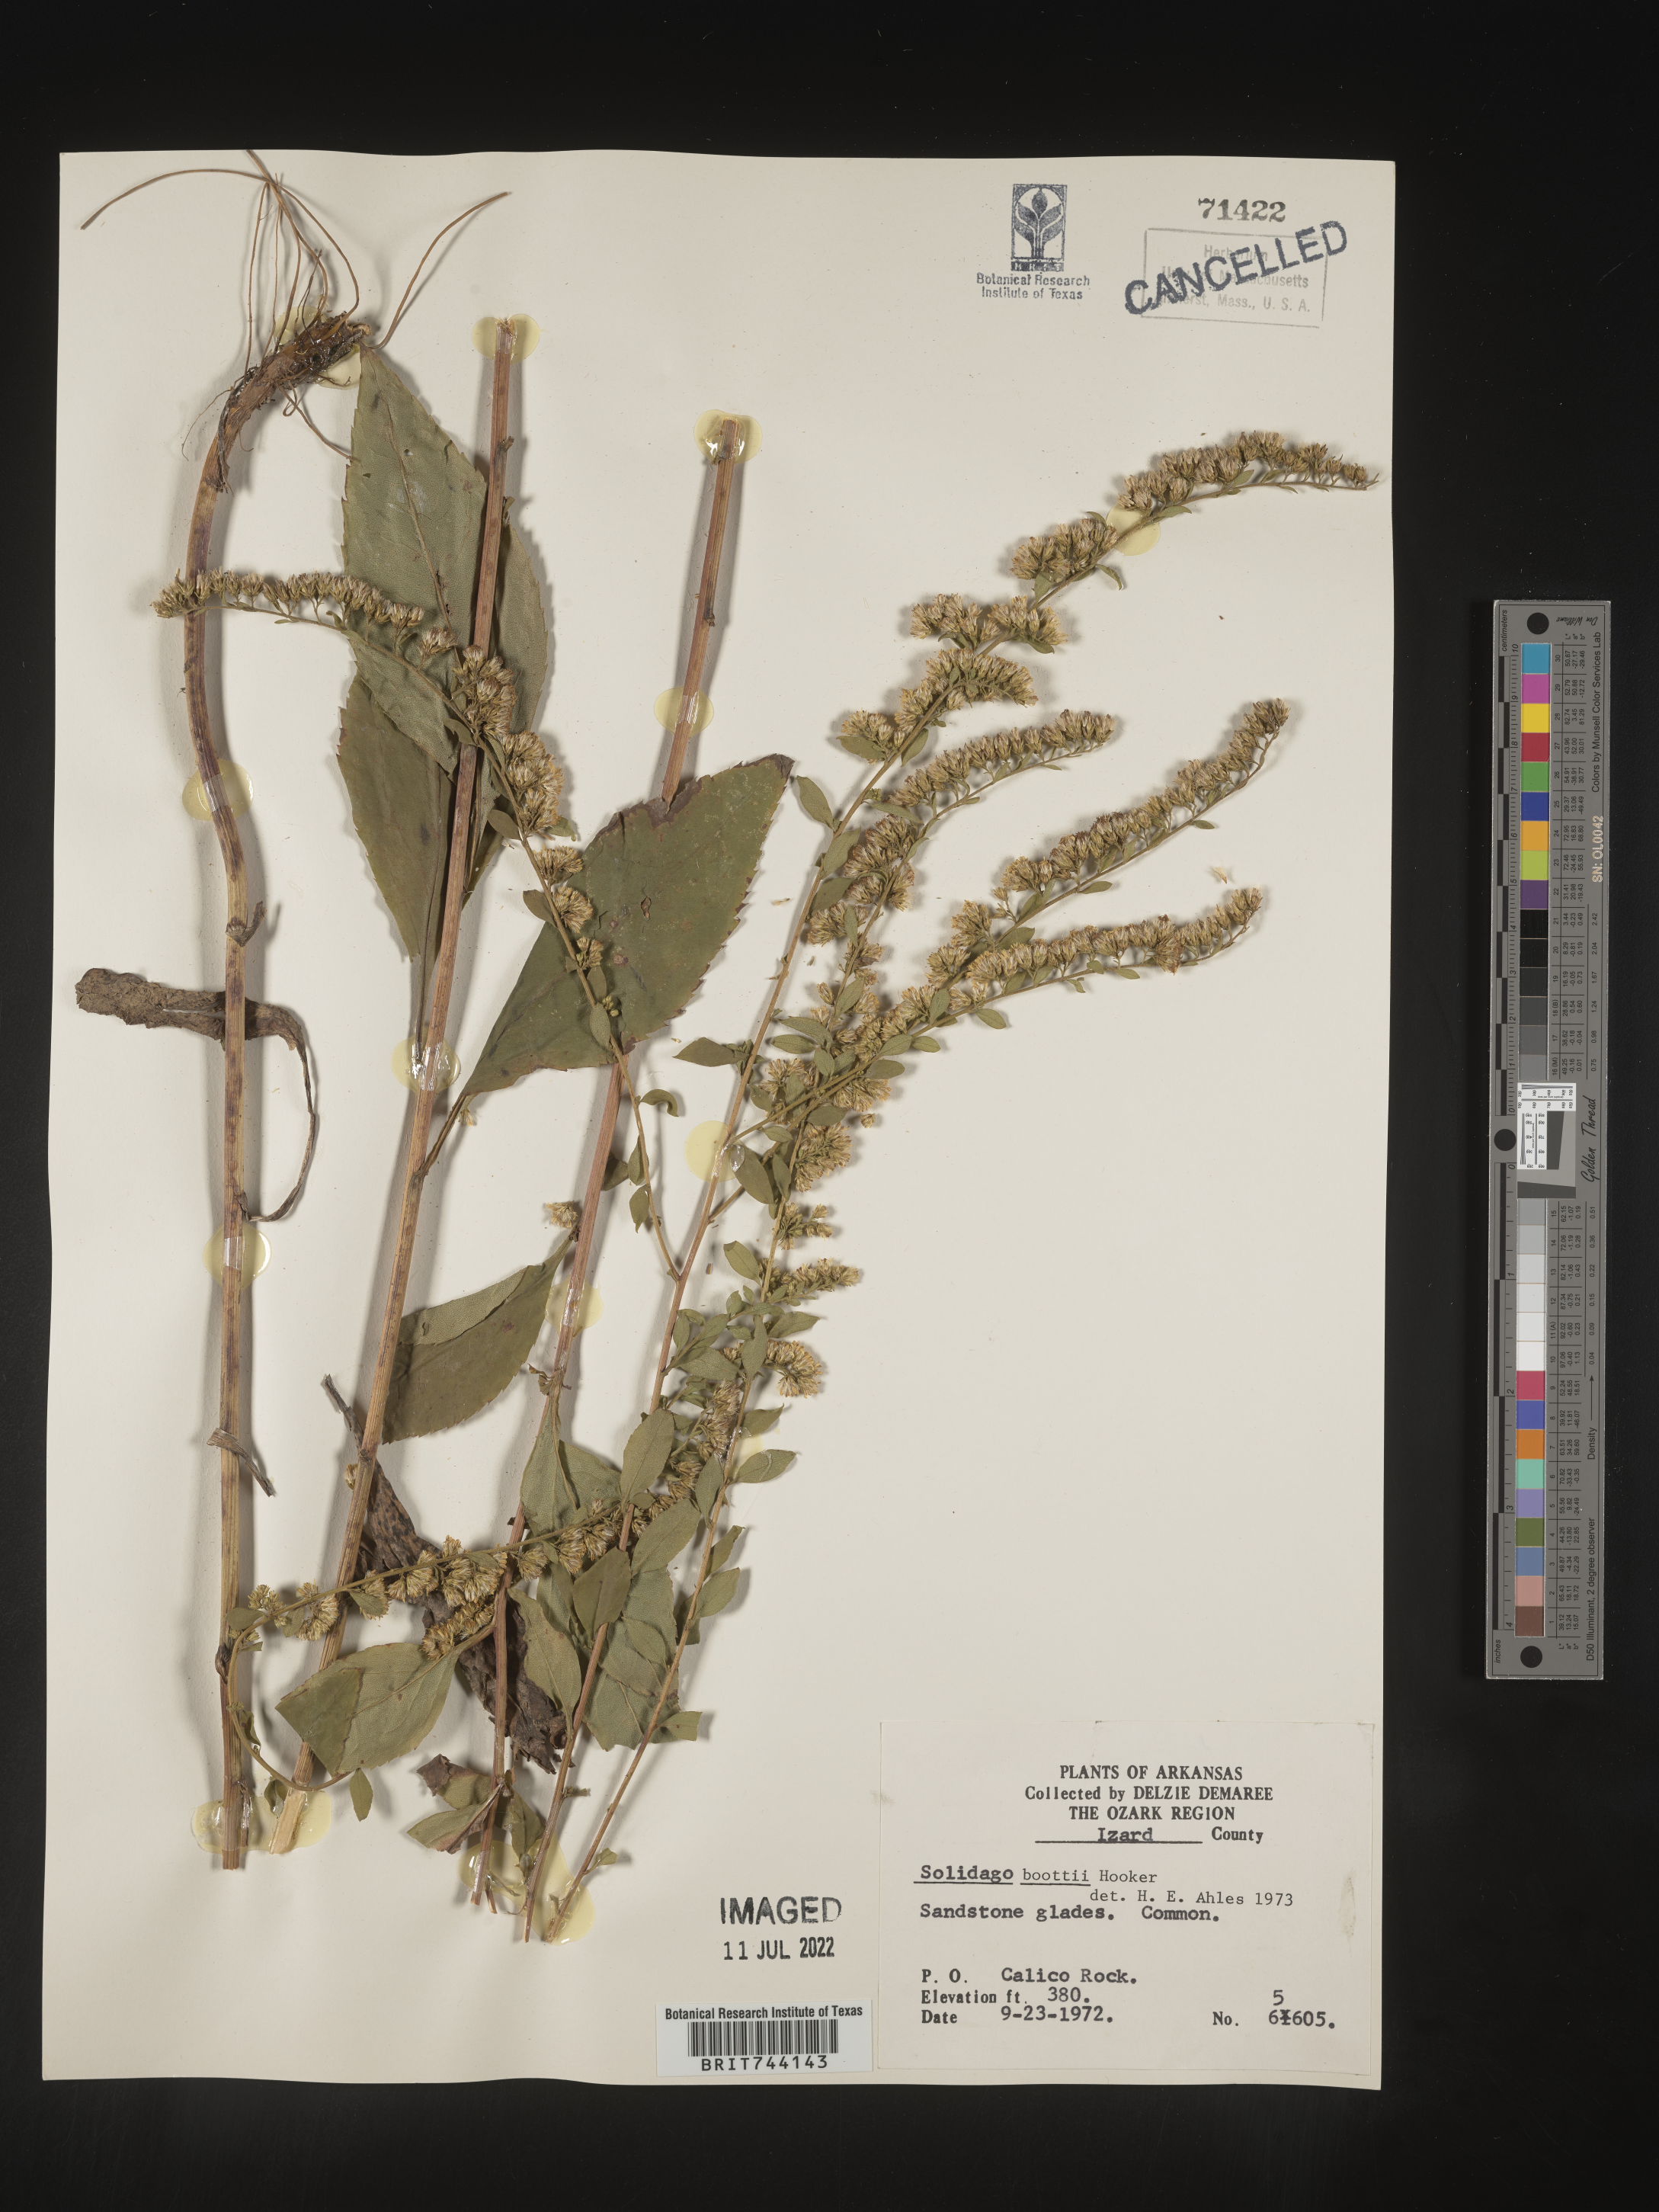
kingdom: Plantae
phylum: Tracheophyta
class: Magnoliopsida
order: Asterales
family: Asteraceae
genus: Solidago
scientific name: Solidago arguta
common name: Atlantic goldenrod
